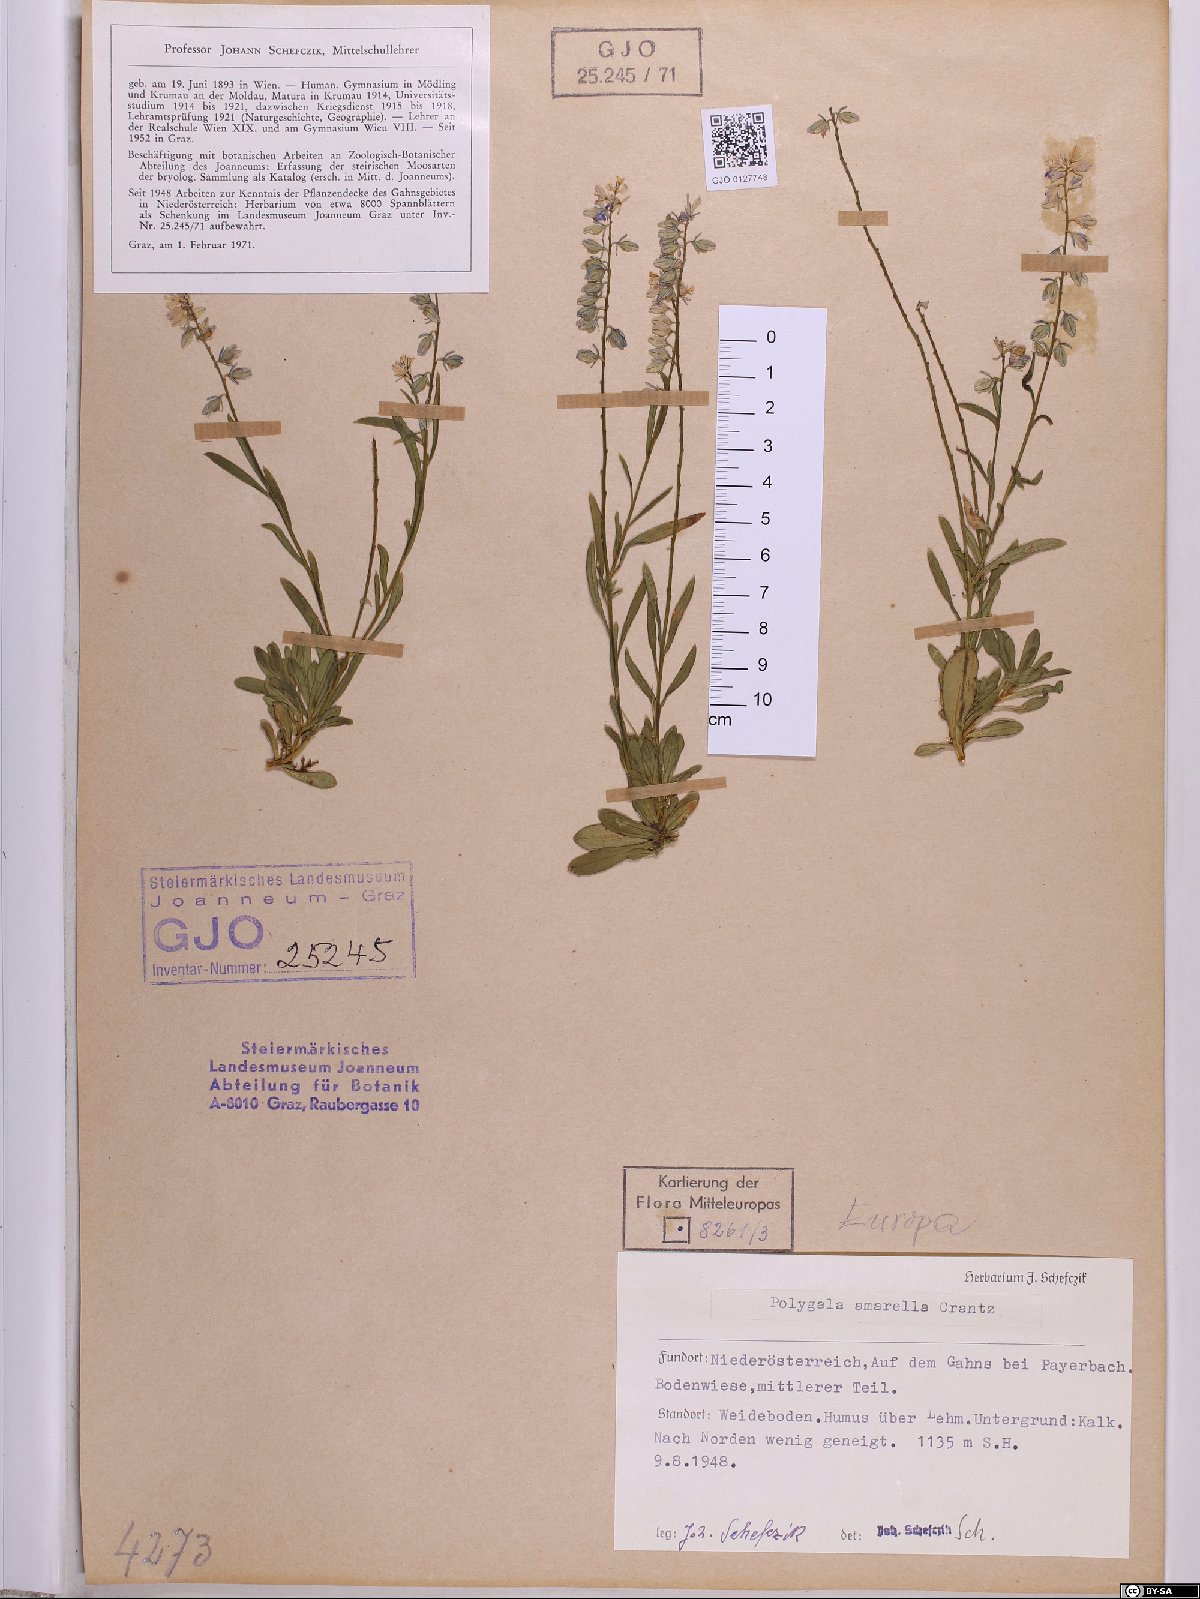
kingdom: Plantae
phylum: Tracheophyta
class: Magnoliopsida
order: Fabales
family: Polygalaceae
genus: Polygala
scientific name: Polygala amarella
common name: Dwarf milkwort
